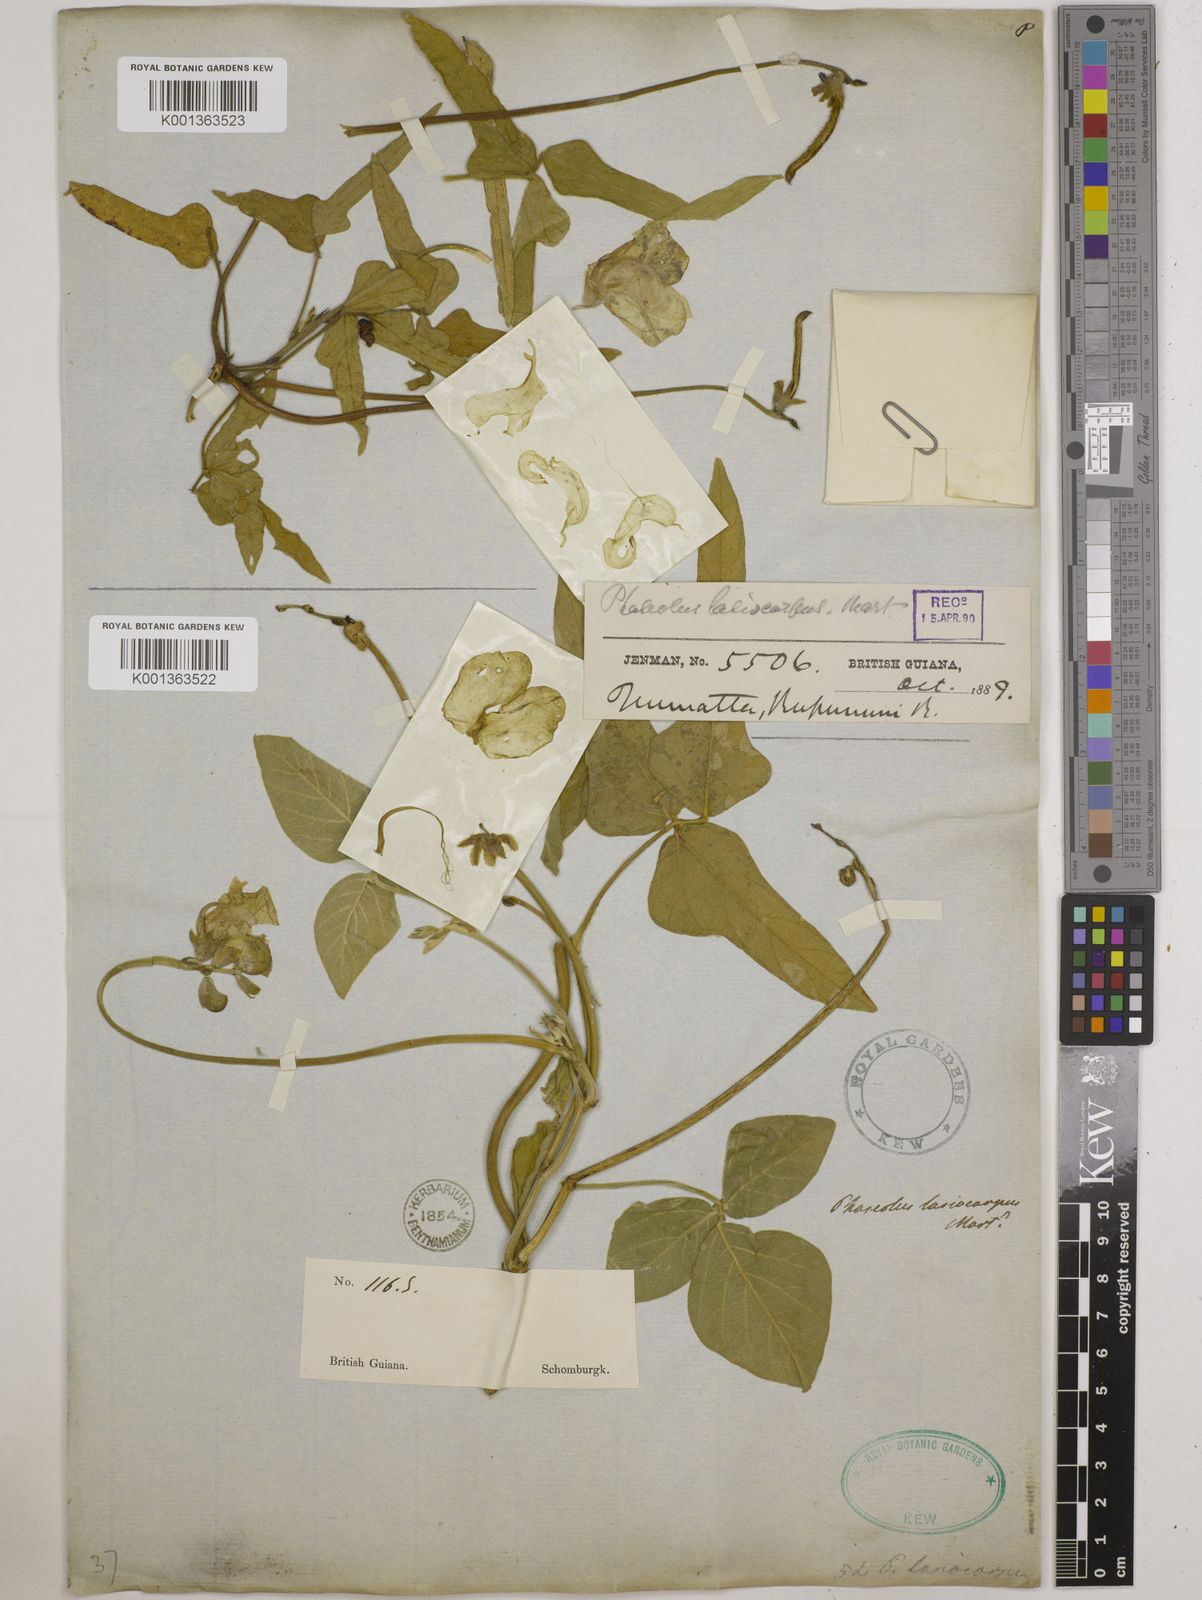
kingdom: Plantae
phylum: Tracheophyta
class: Magnoliopsida
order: Fabales
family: Fabaceae
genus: Vigna
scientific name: Vigna lasiocarpa
